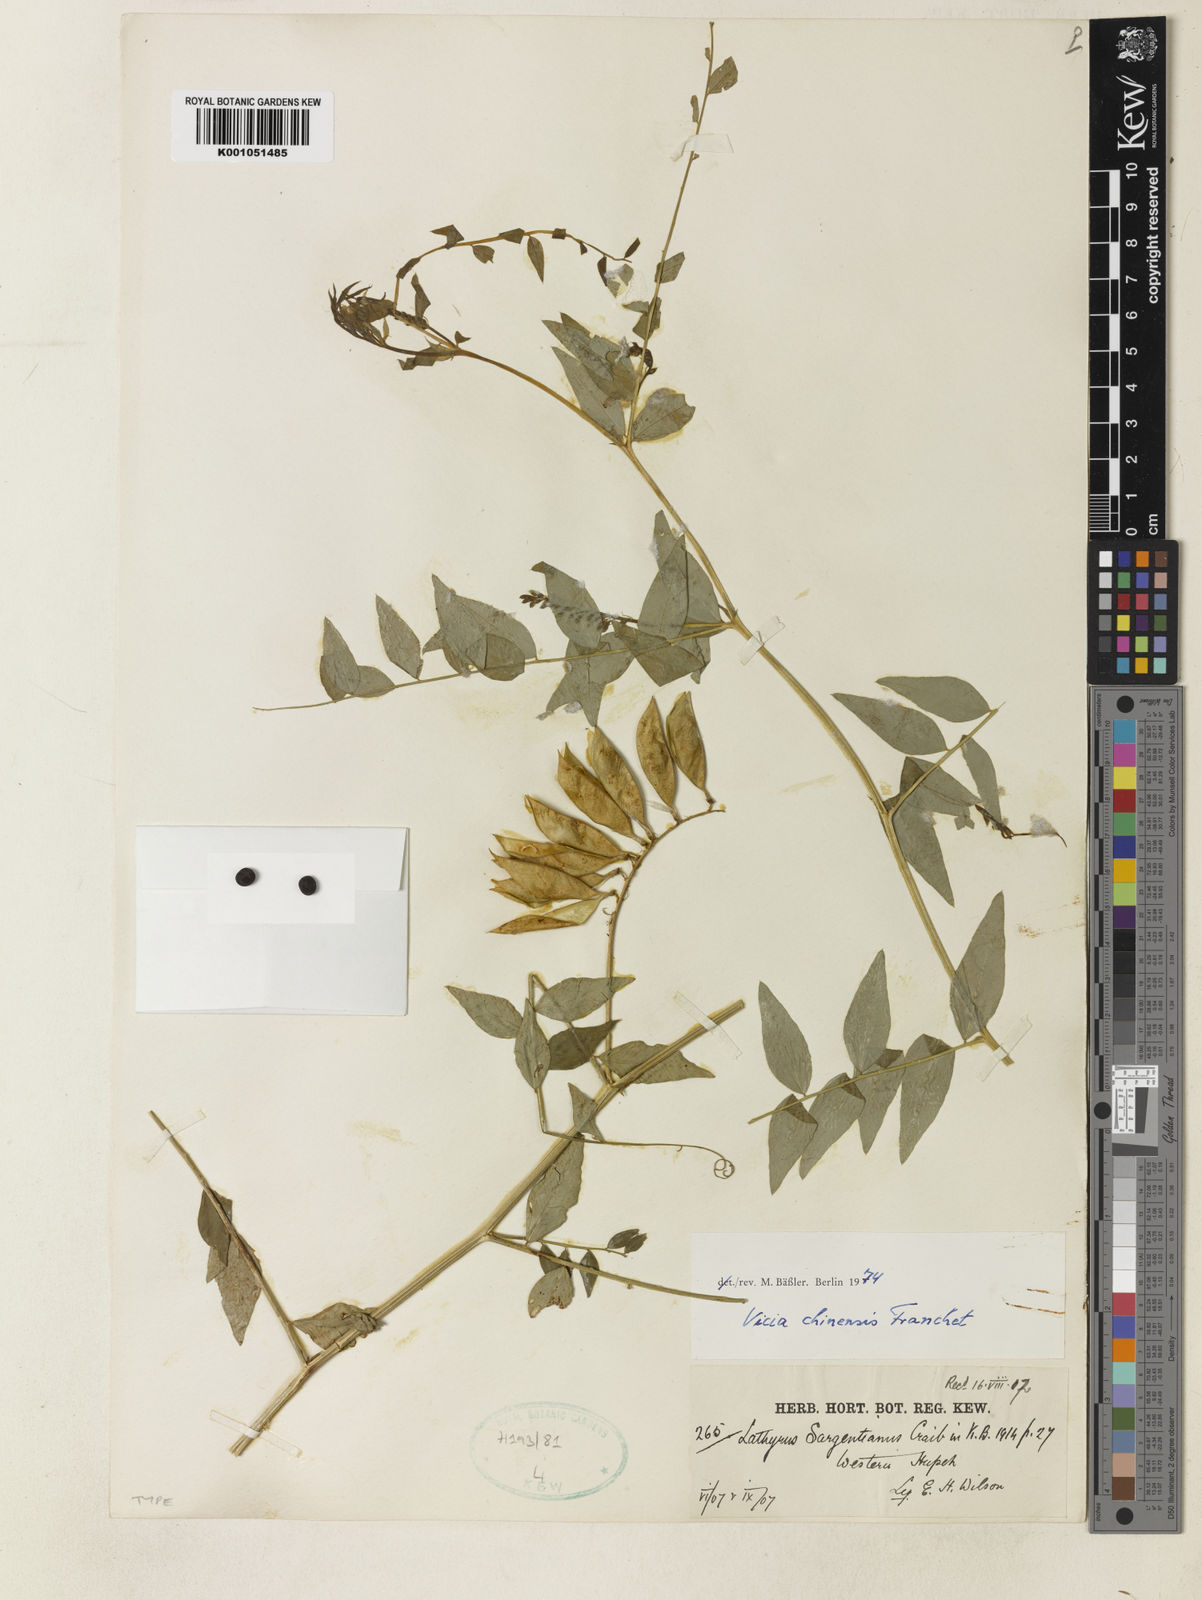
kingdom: Plantae
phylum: Tracheophyta
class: Magnoliopsida
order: Fabales
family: Fabaceae
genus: Vicia
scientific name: Vicia chinensis
